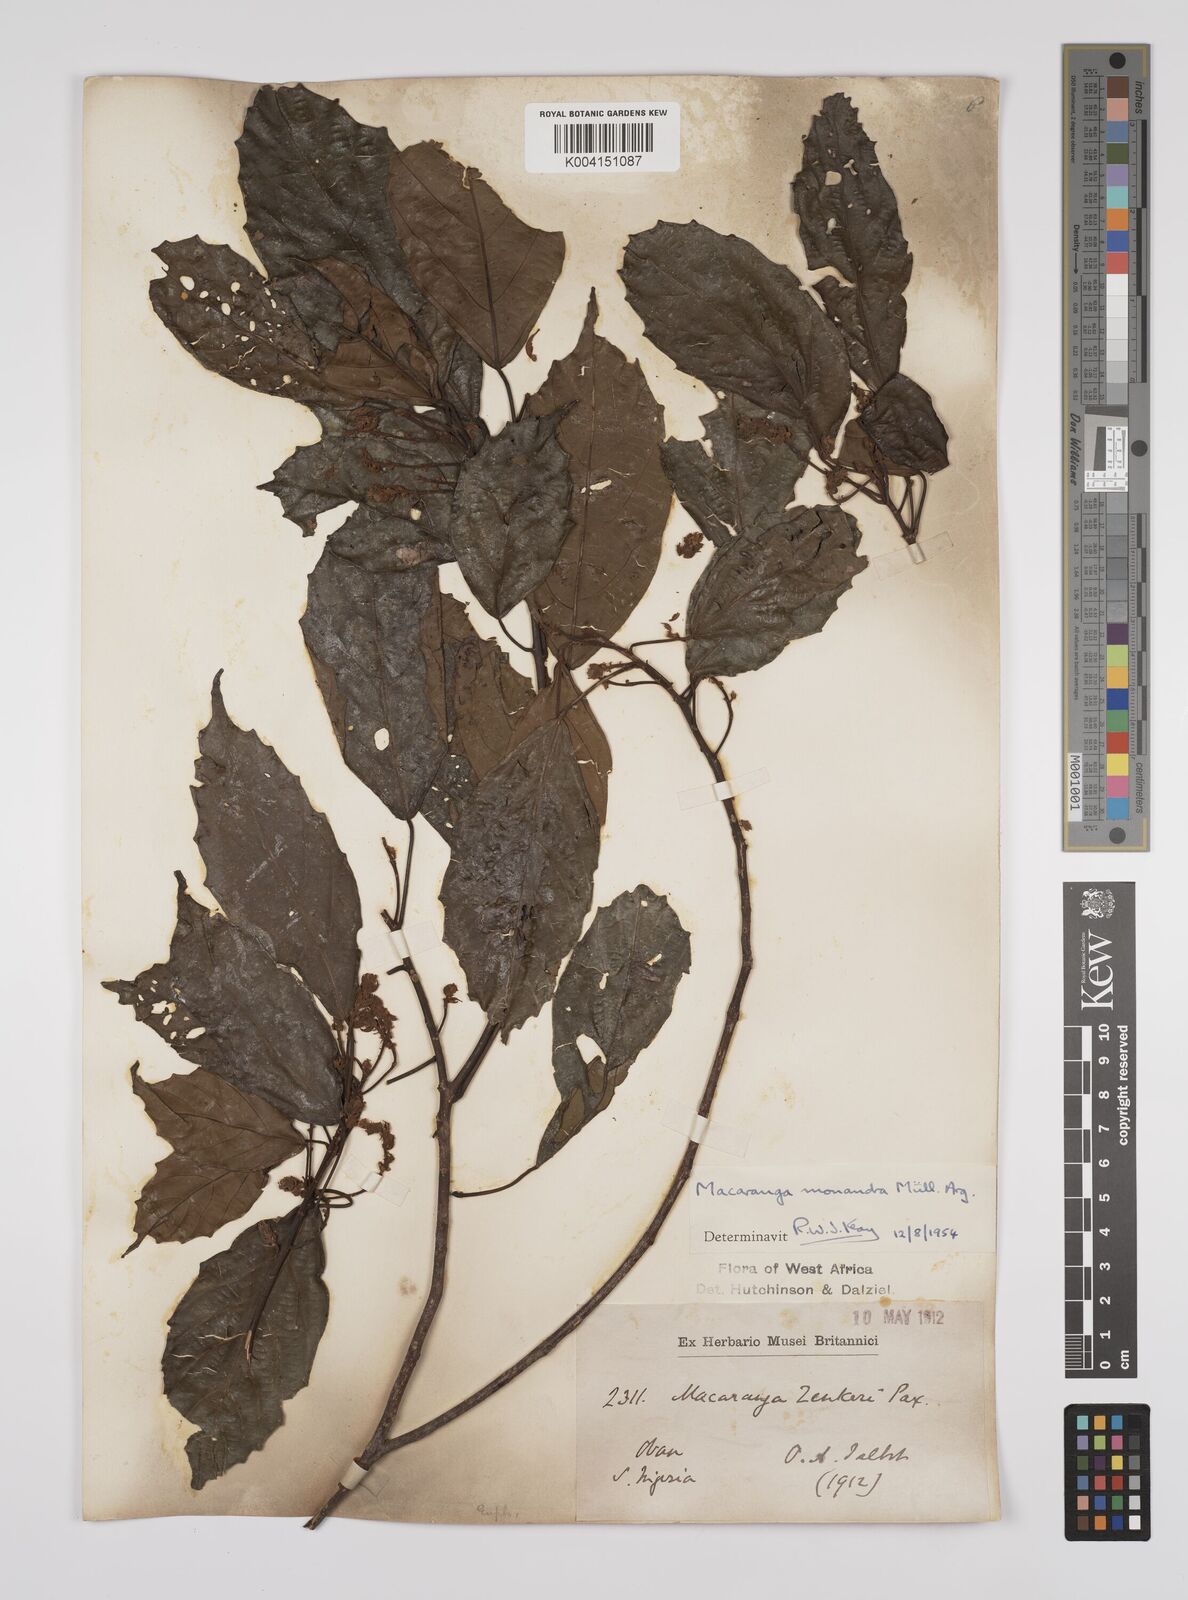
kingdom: Plantae
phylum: Tracheophyta
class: Magnoliopsida
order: Malpighiales
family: Euphorbiaceae
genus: Macaranga
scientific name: Macaranga monandra
